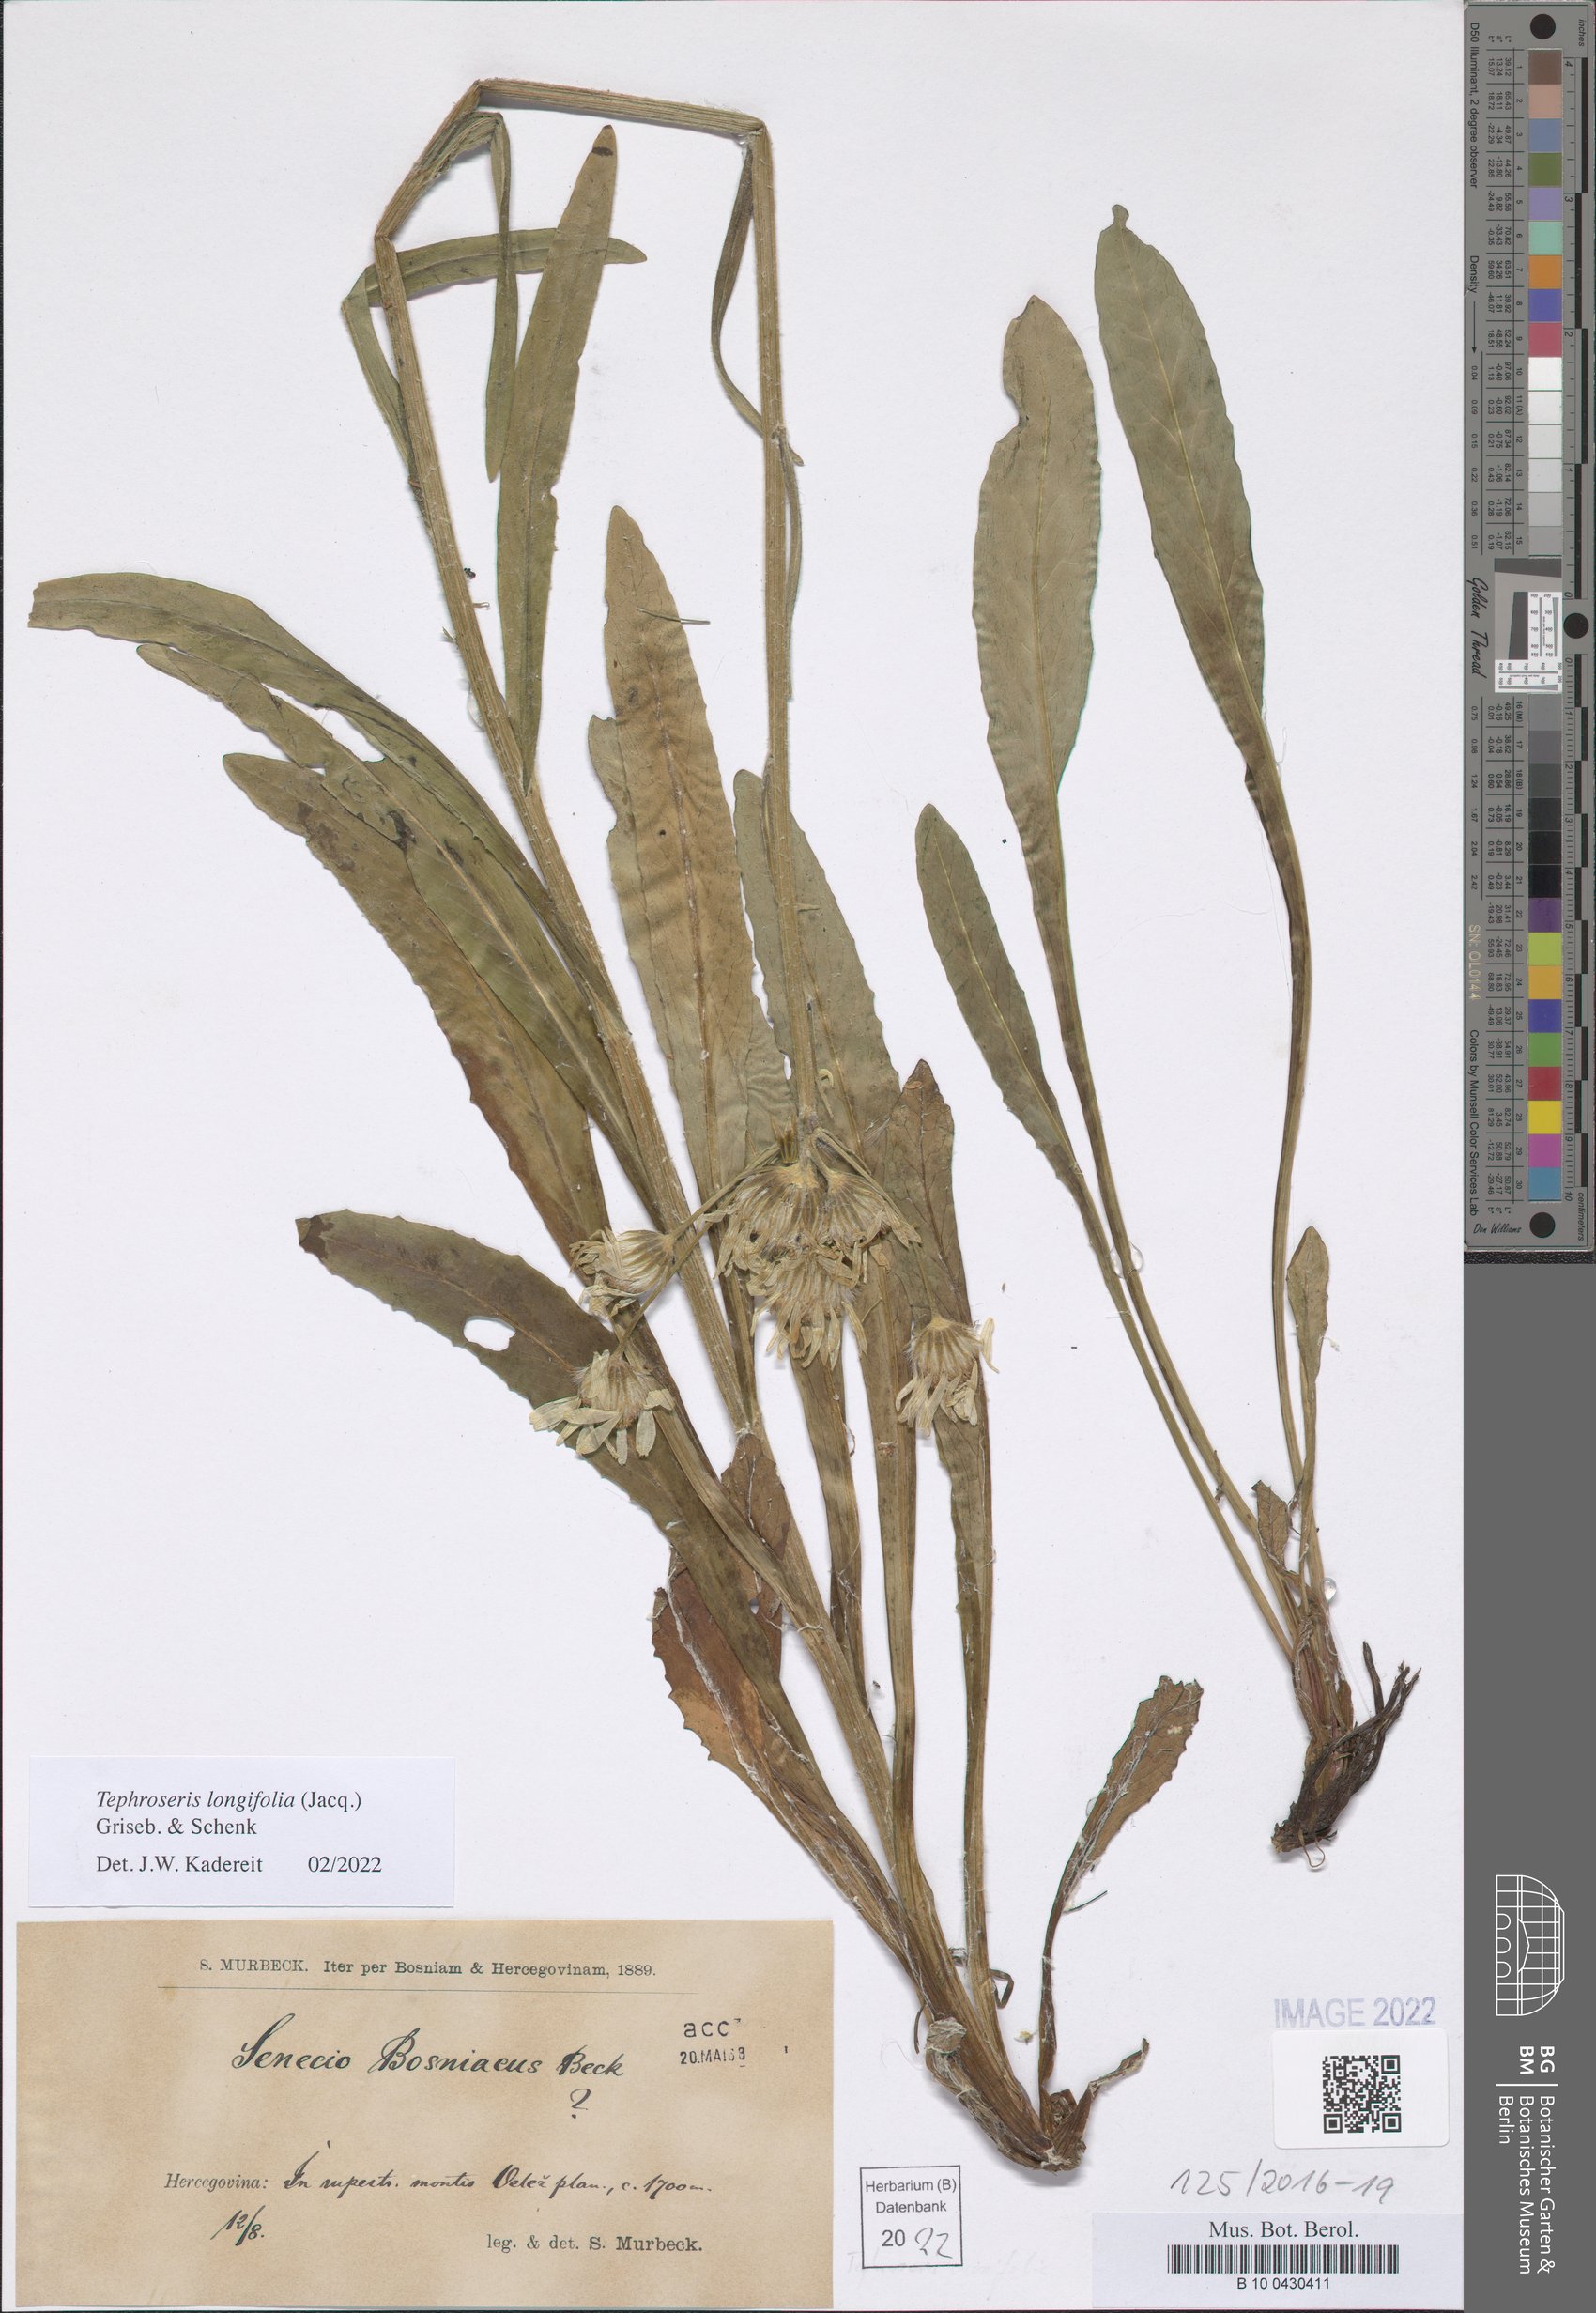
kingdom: Plantae
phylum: Tracheophyta
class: Magnoliopsida
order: Asterales
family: Asteraceae
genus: Tephroseris
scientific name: Tephroseris longifolia
